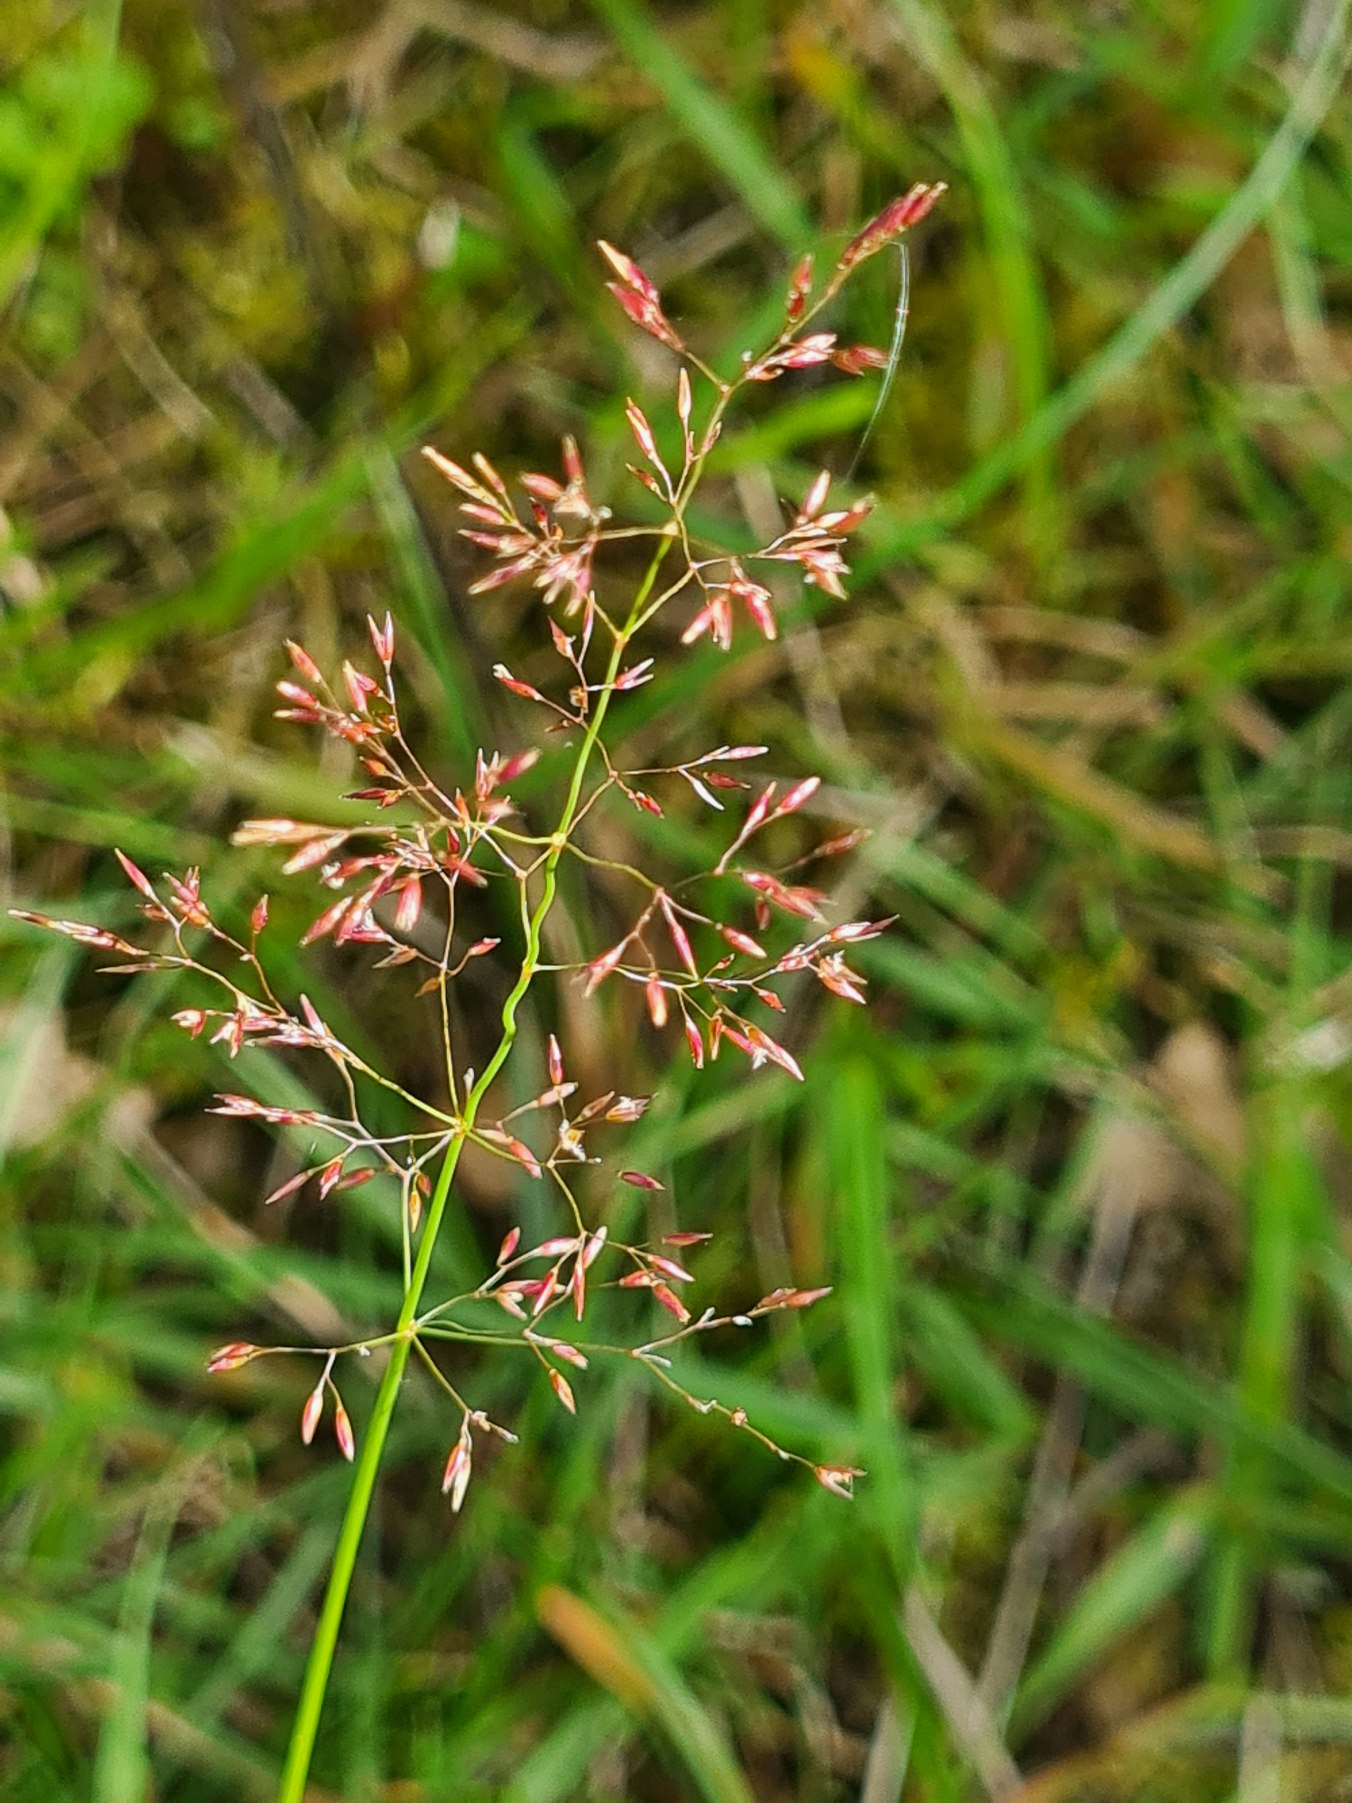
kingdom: Plantae
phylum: Tracheophyta
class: Liliopsida
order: Poales
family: Poaceae
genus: Agrostis
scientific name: Agrostis capillaris
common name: Almindelig hvene
